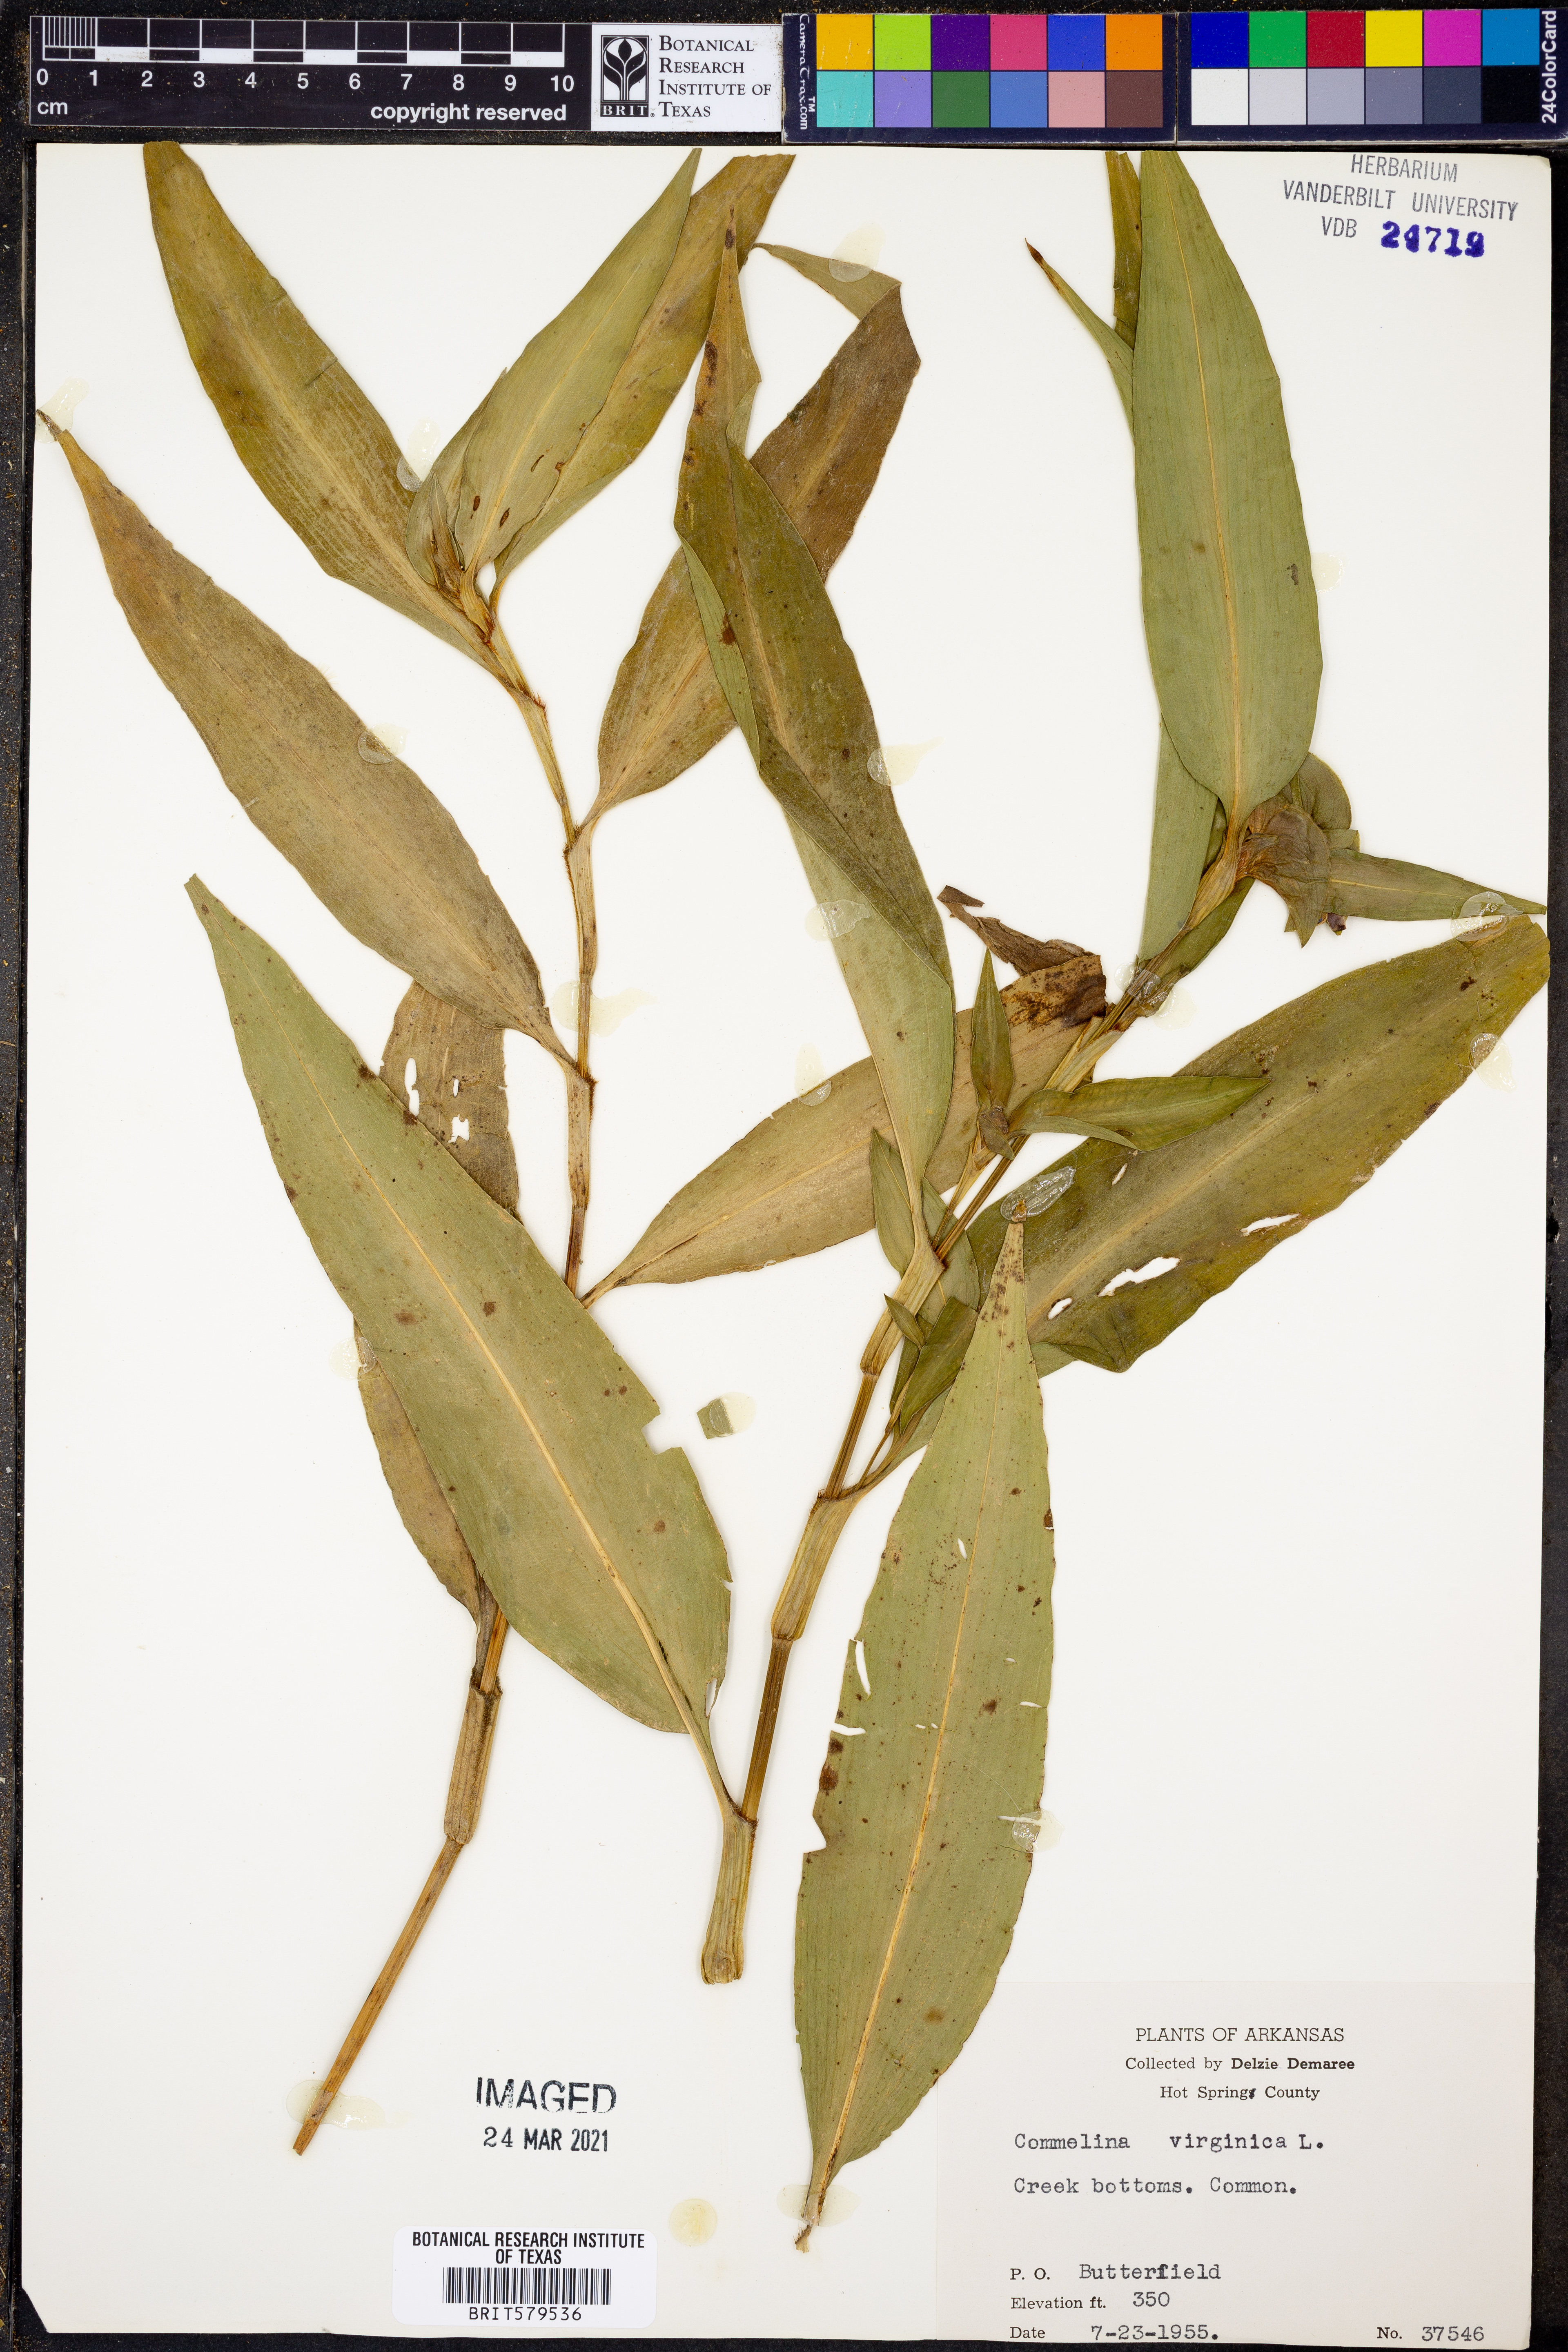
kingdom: Plantae
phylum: Tracheophyta
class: Liliopsida
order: Commelinales
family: Commelinaceae
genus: Commelina
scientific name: Commelina virginica
